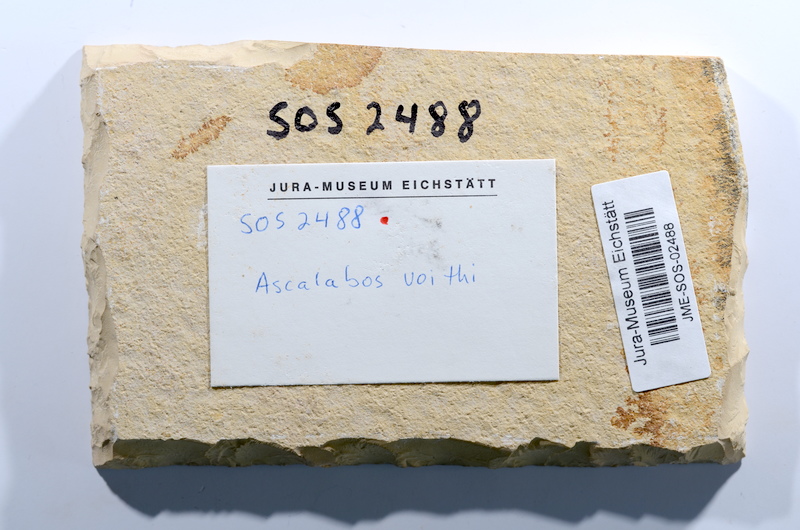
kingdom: Animalia
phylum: Chordata
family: Ascalaboidae
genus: Ascalabos
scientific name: Ascalabos voithii
